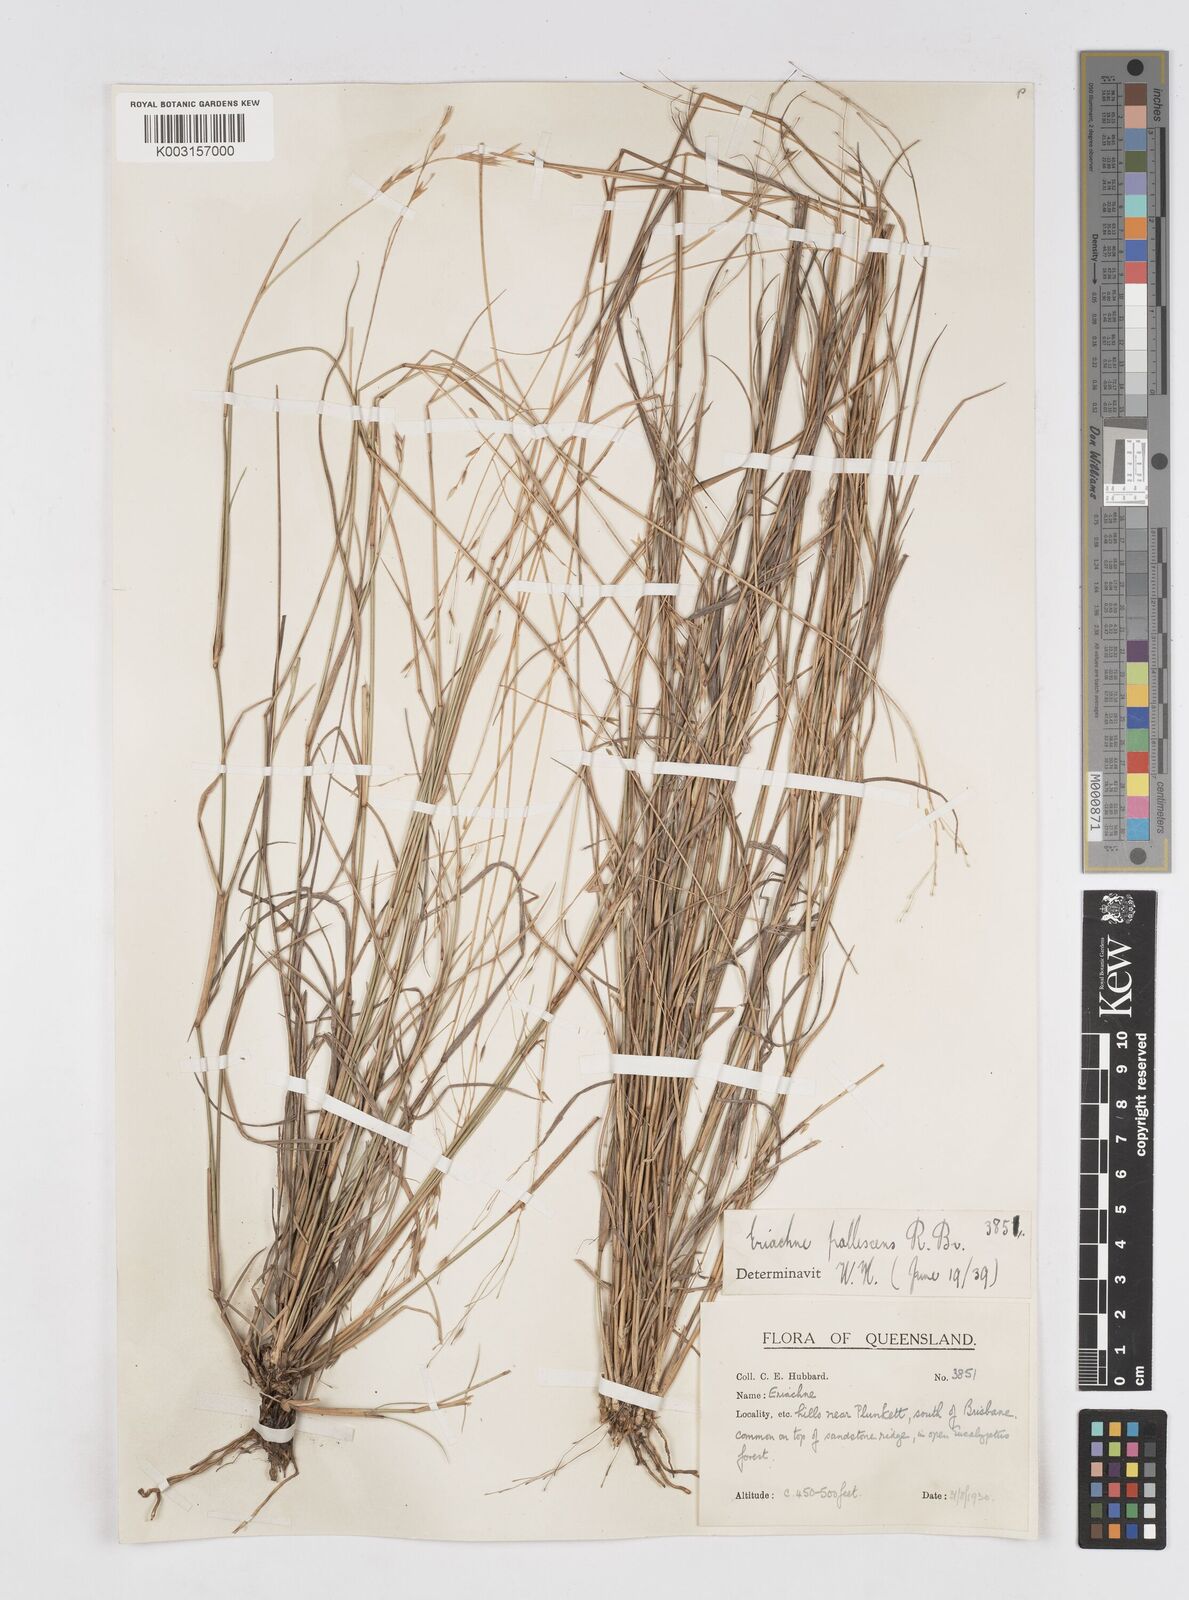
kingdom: Plantae
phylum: Tracheophyta
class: Liliopsida
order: Poales
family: Poaceae
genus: Eriachne
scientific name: Eriachne pallescens
